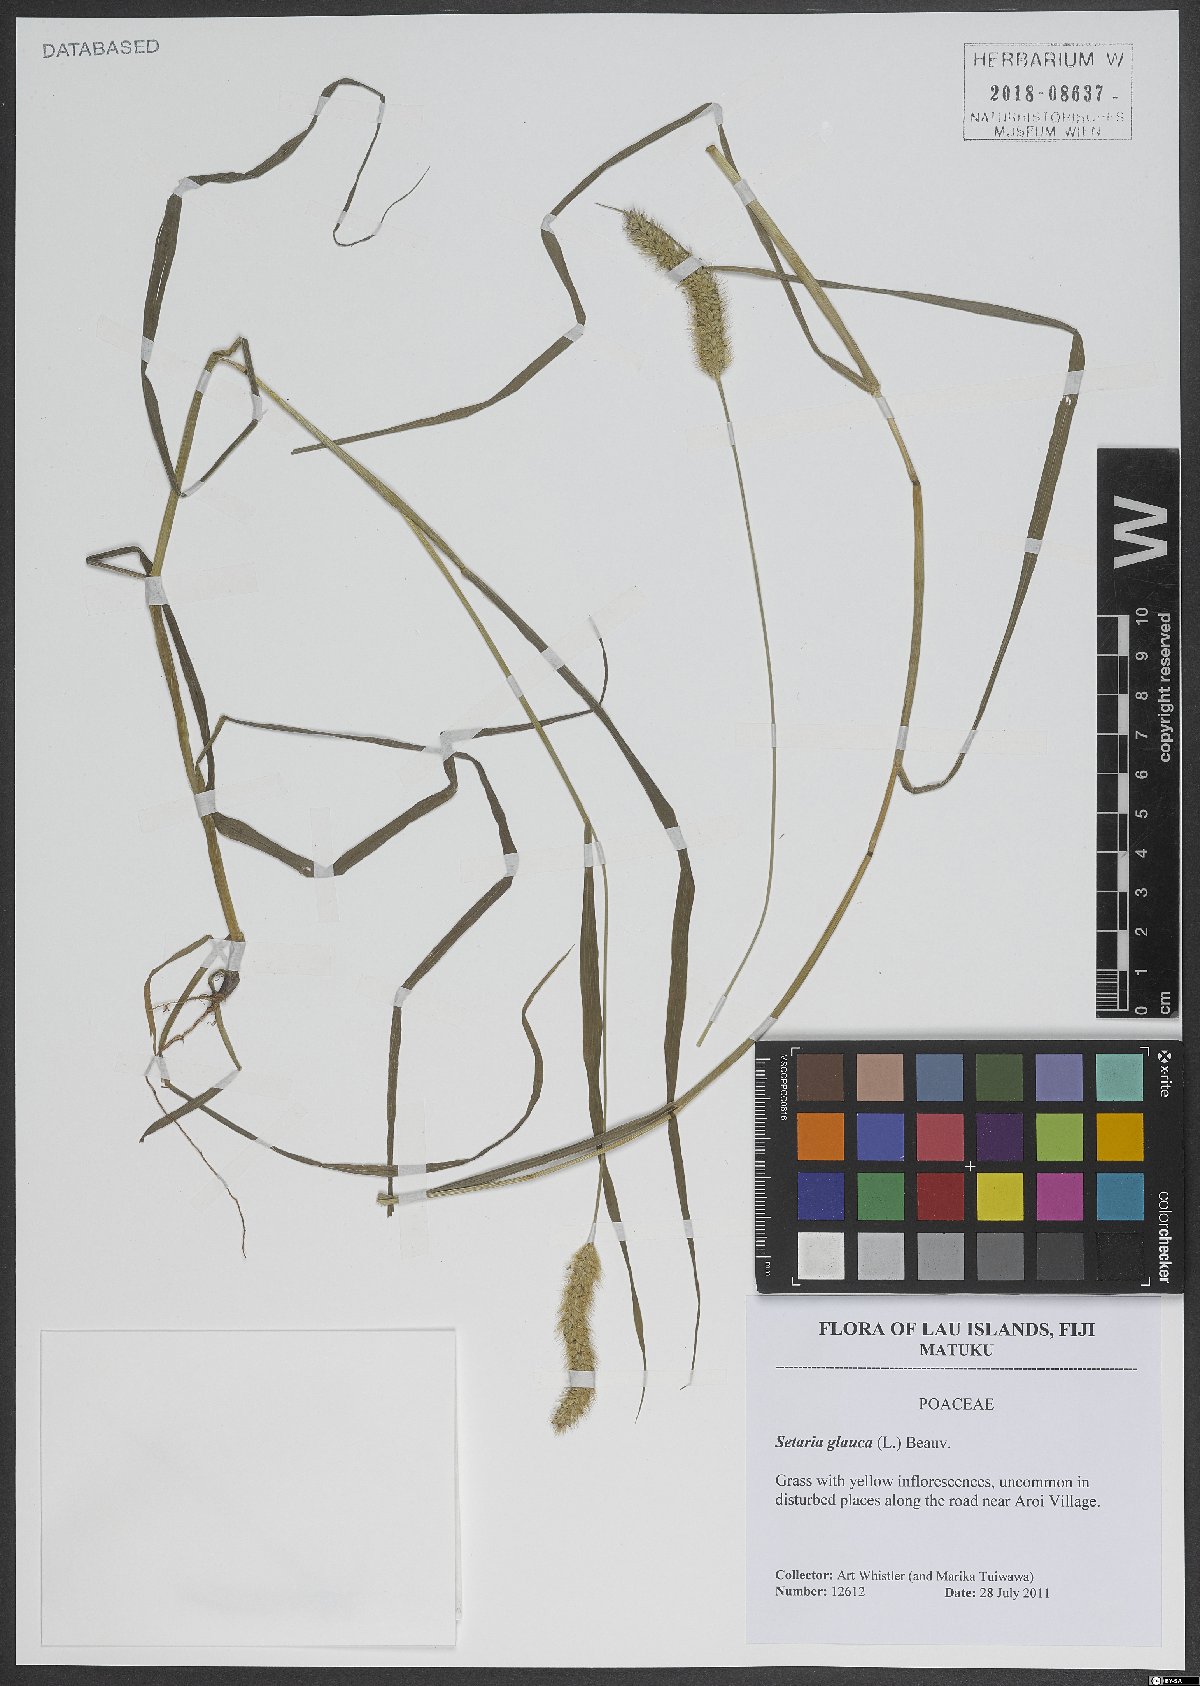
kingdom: Plantae
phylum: Tracheophyta
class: Liliopsida
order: Poales
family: Poaceae
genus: Cenchrus
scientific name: Cenchrus americanus
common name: Pearl millet
